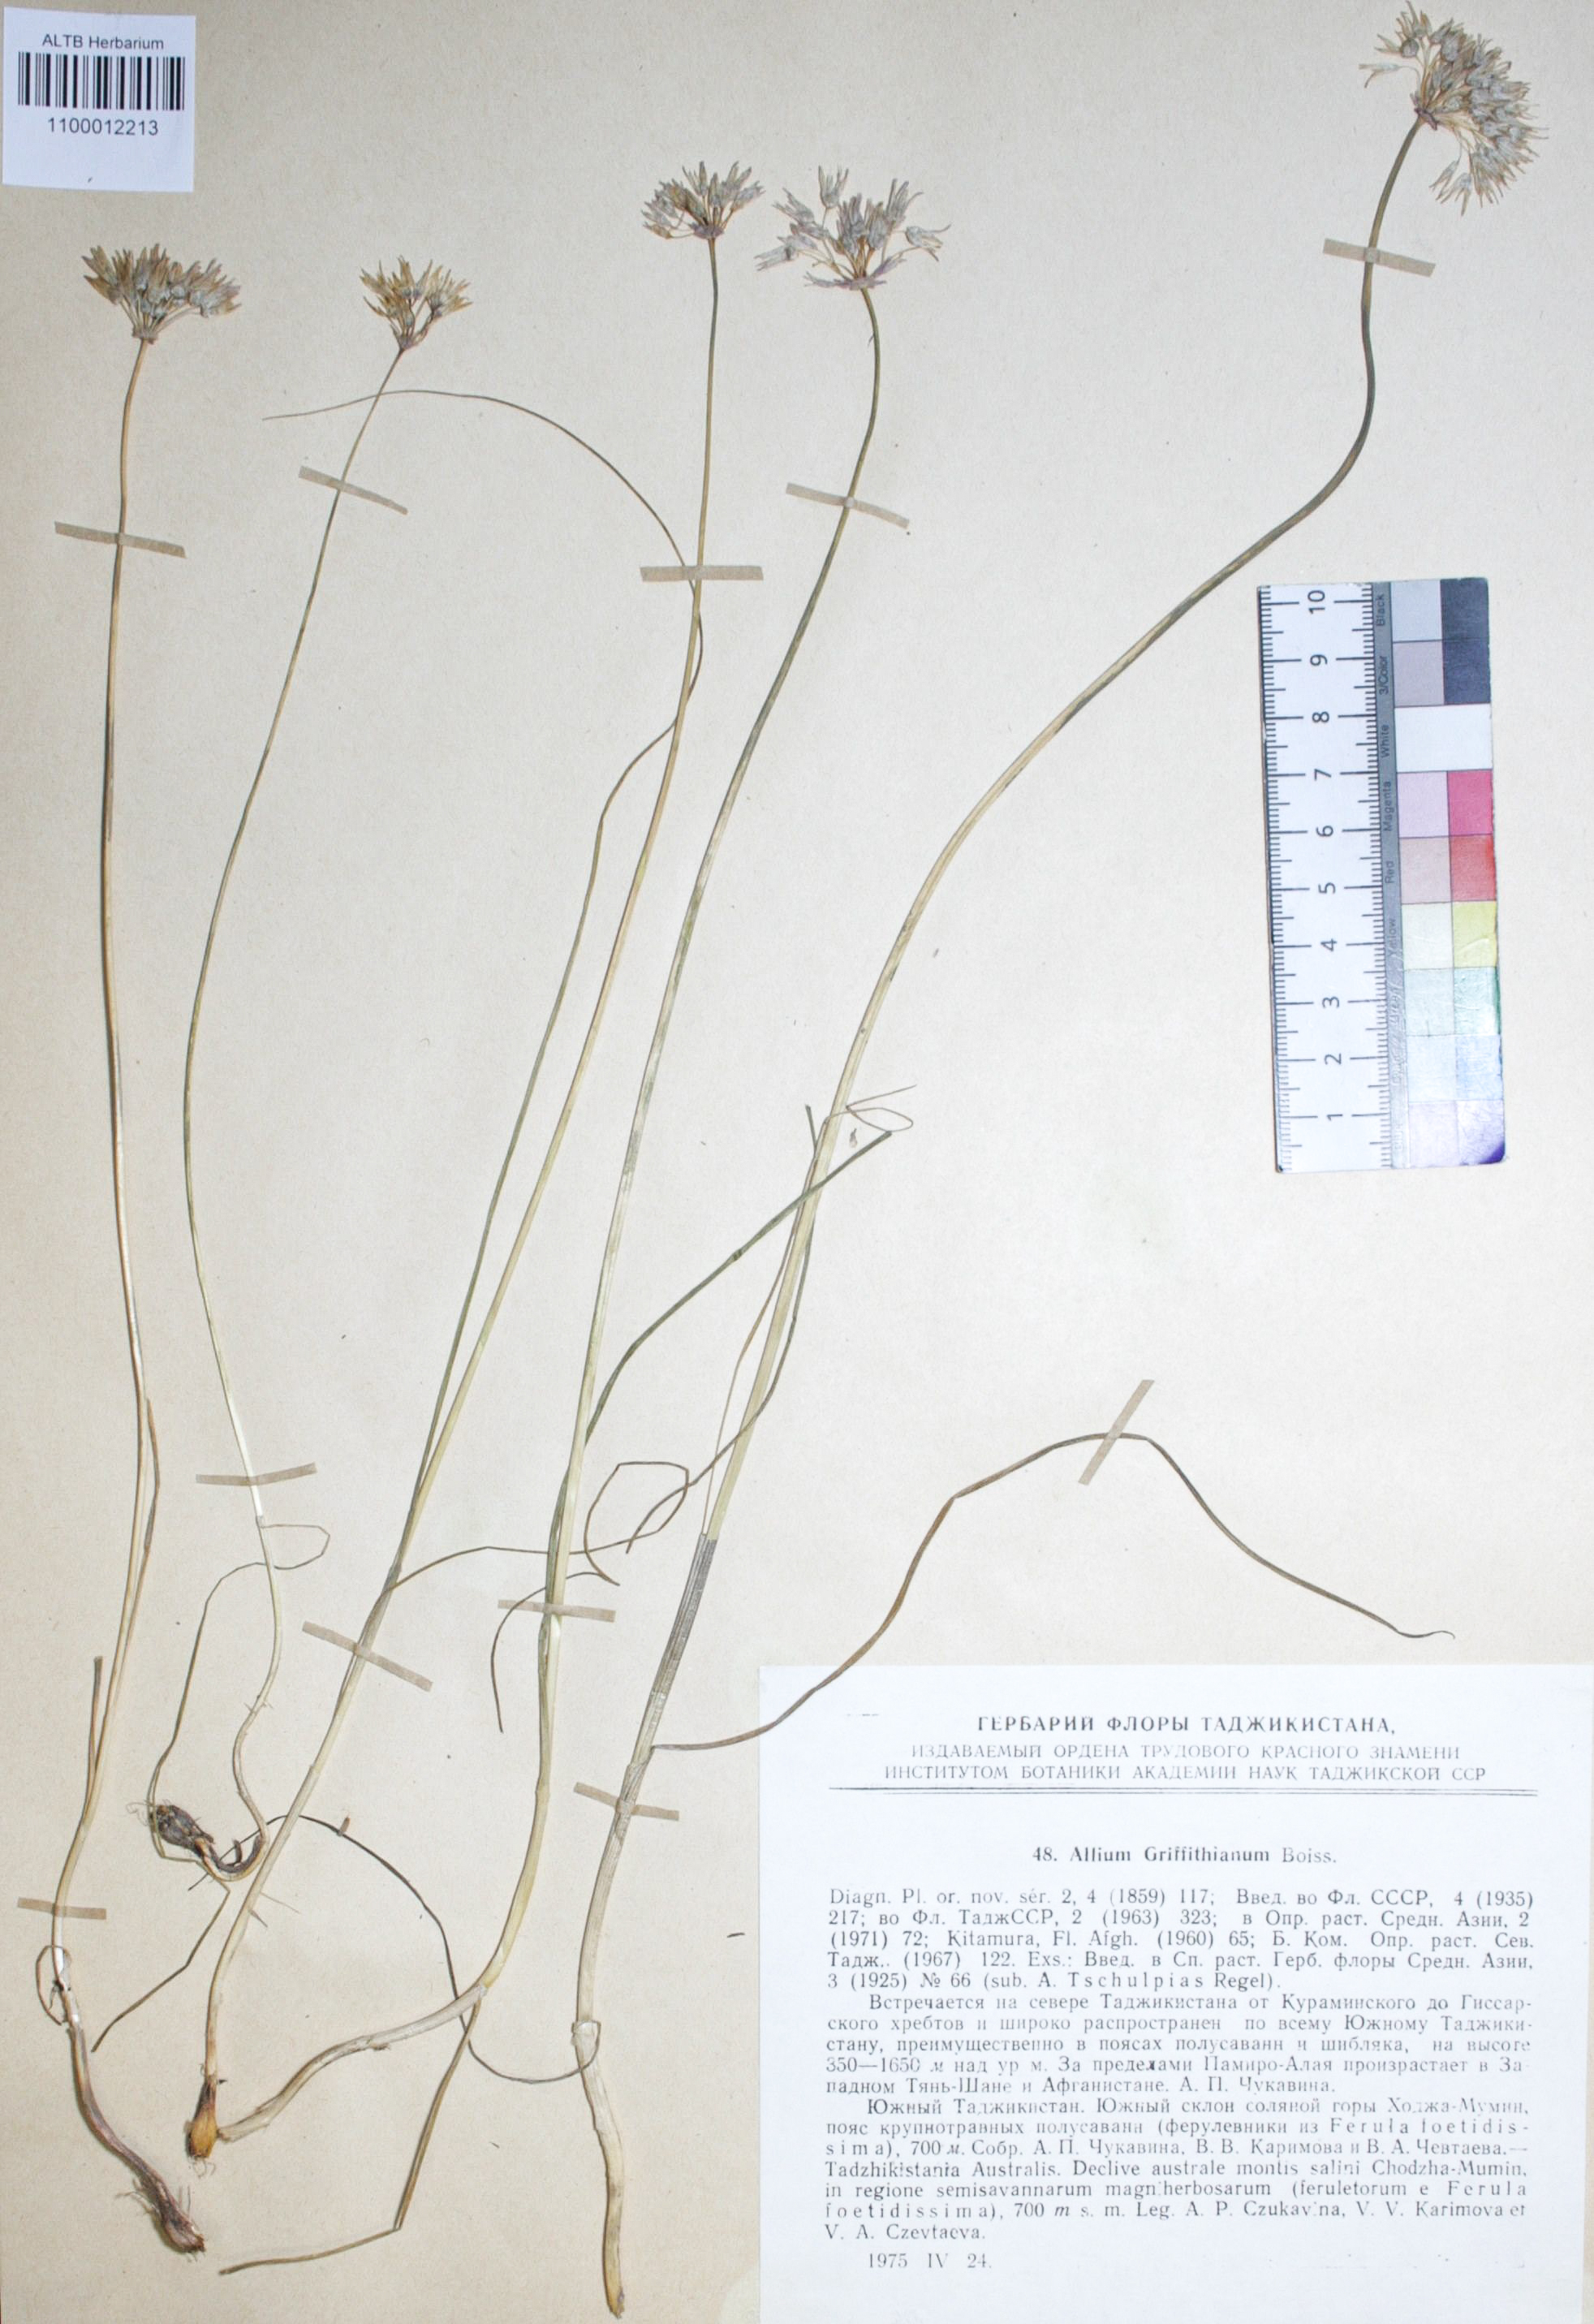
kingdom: Plantae
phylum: Tracheophyta
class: Liliopsida
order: Asparagales
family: Amaryllidaceae
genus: Allium
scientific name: Allium griffithianum
